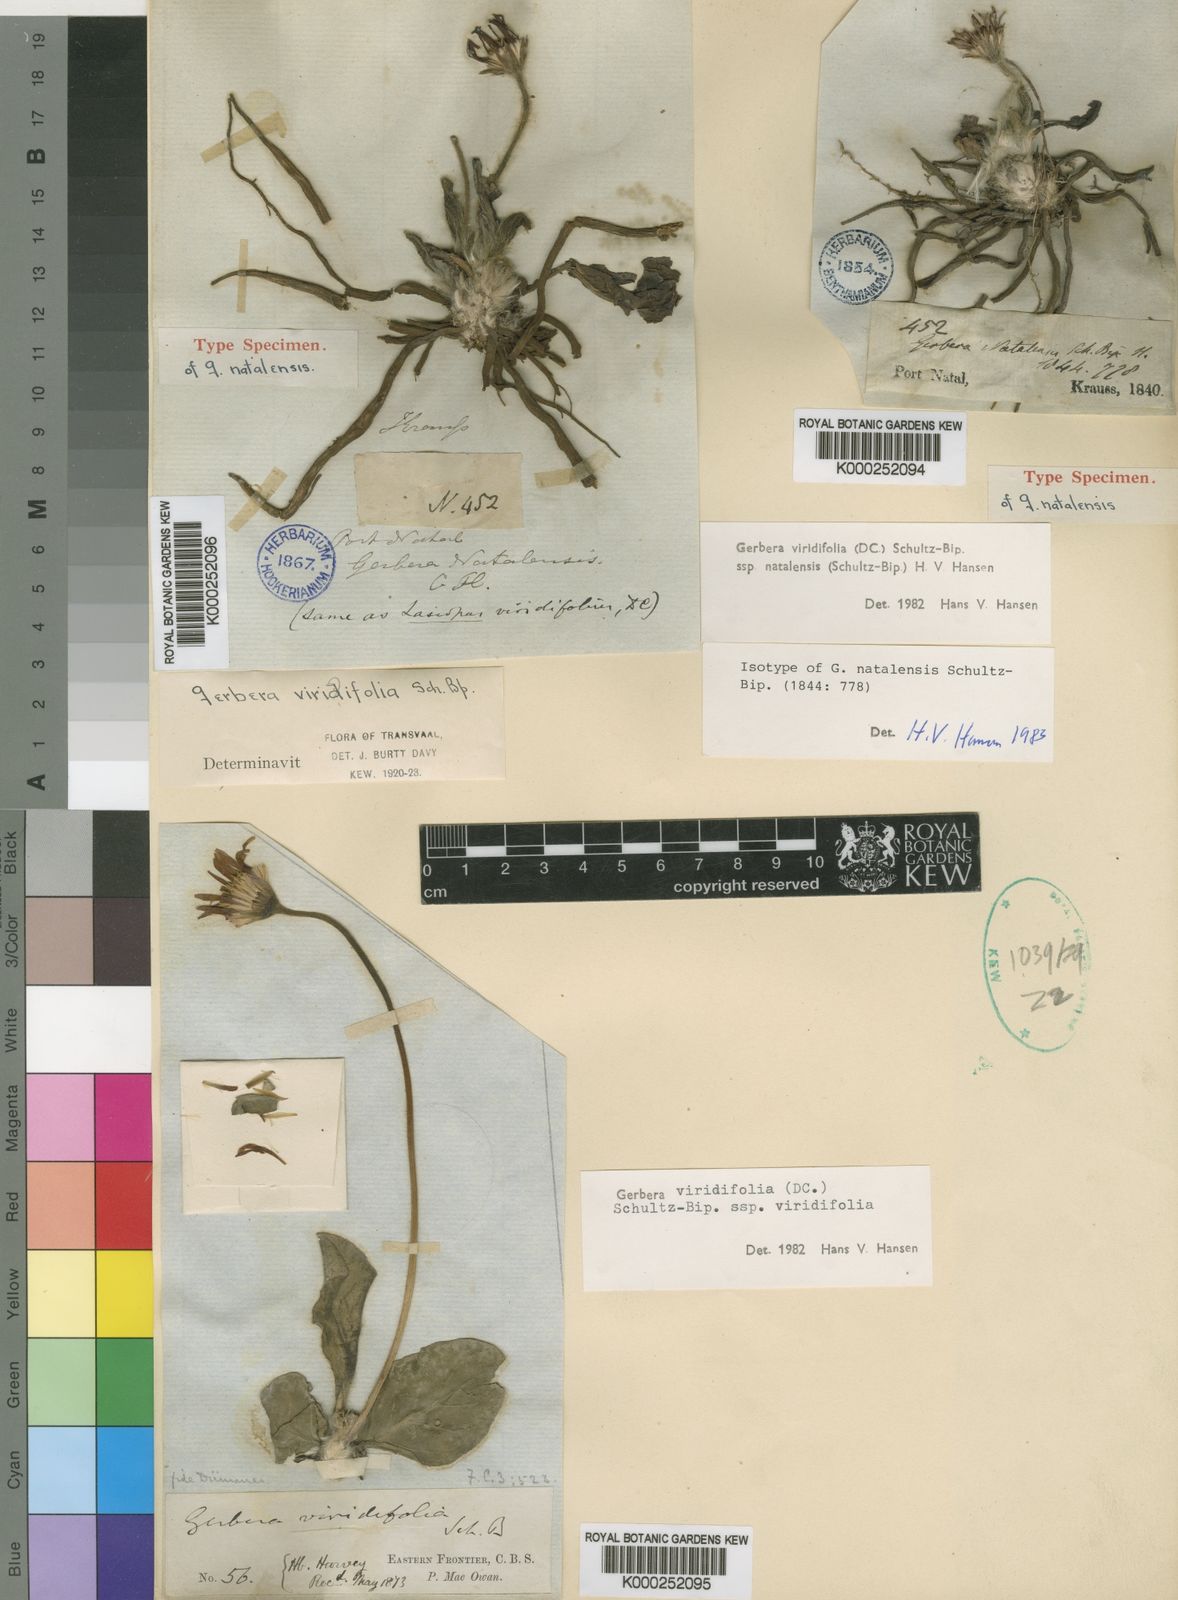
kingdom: Plantae
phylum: Tracheophyta
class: Magnoliopsida
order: Asterales
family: Asteraceae
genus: Gerbera
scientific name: Gerbera natalensis
